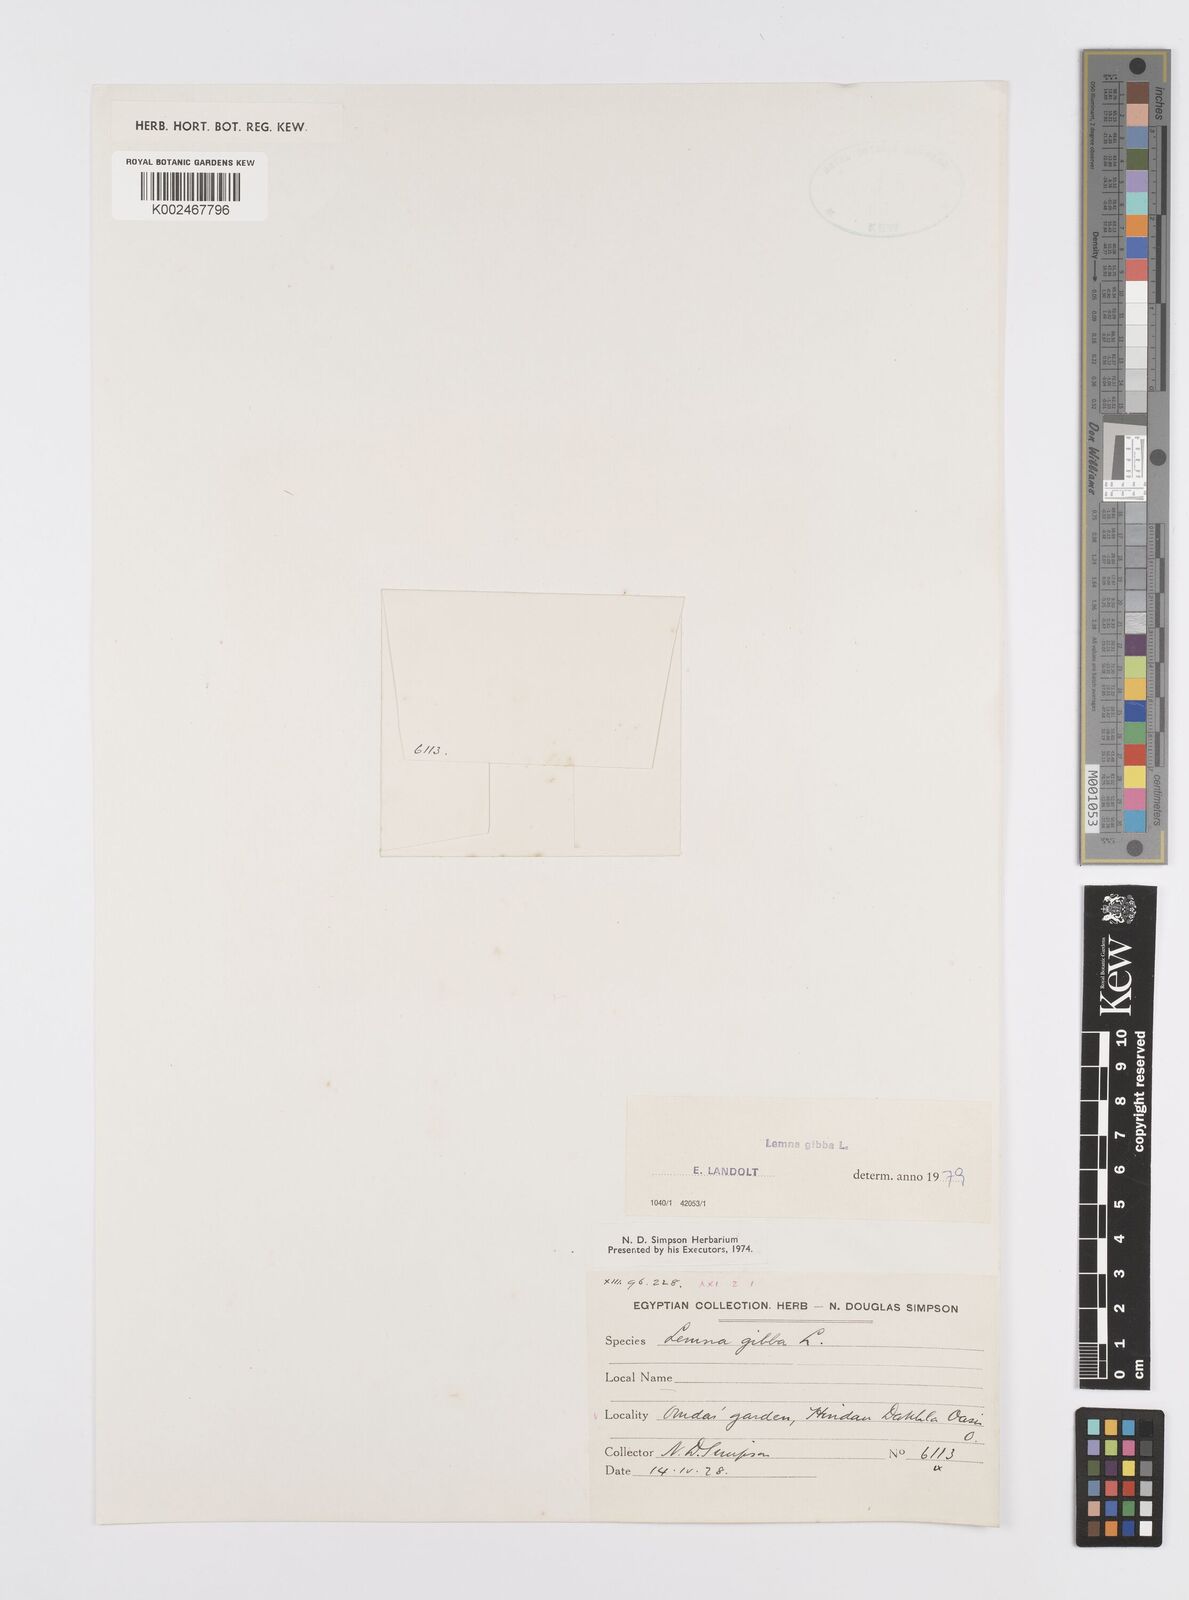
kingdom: Plantae
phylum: Tracheophyta
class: Liliopsida
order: Alismatales
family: Araceae
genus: Lemna
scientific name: Lemna gibba
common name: Fat duckweed
